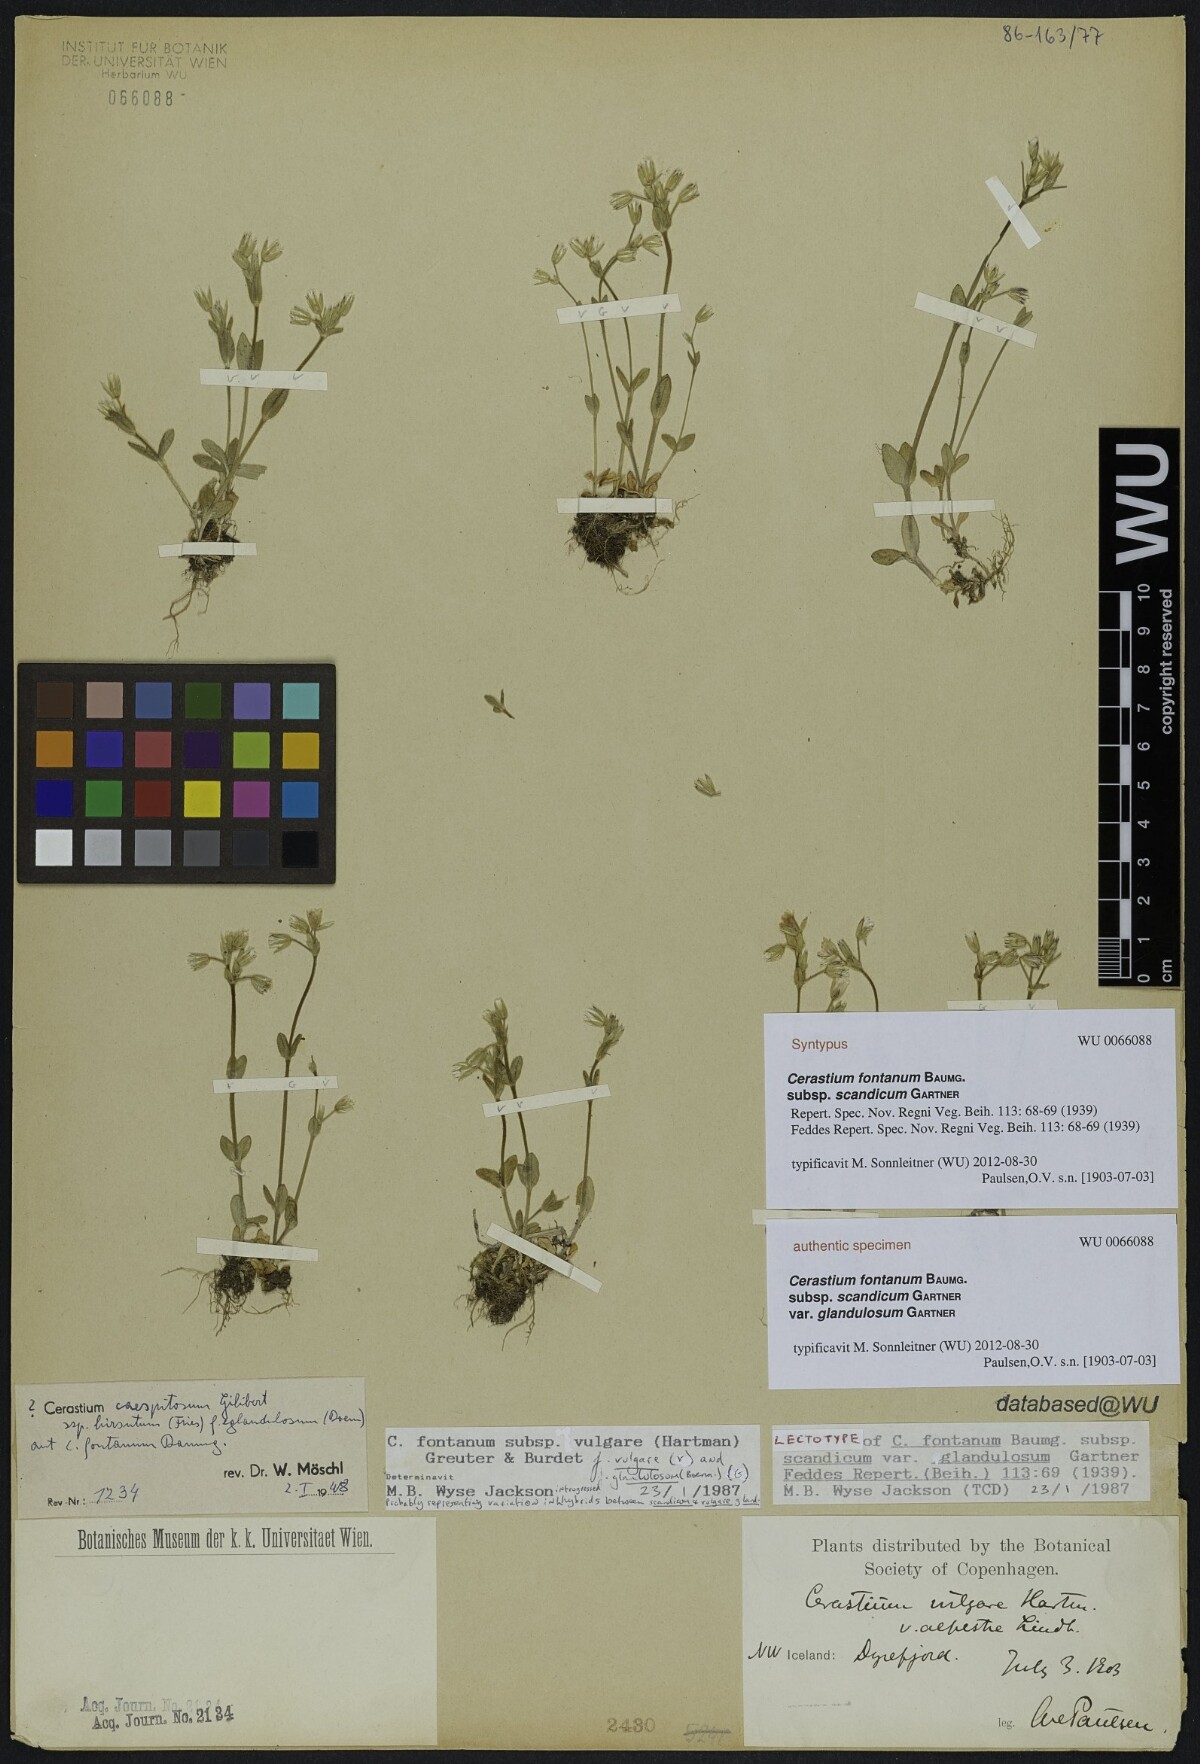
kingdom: Plantae
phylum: Tracheophyta
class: Magnoliopsida
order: Caryophyllales
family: Caryophyllaceae
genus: Cerastium
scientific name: Cerastium holosteoides
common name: Big chickweed
